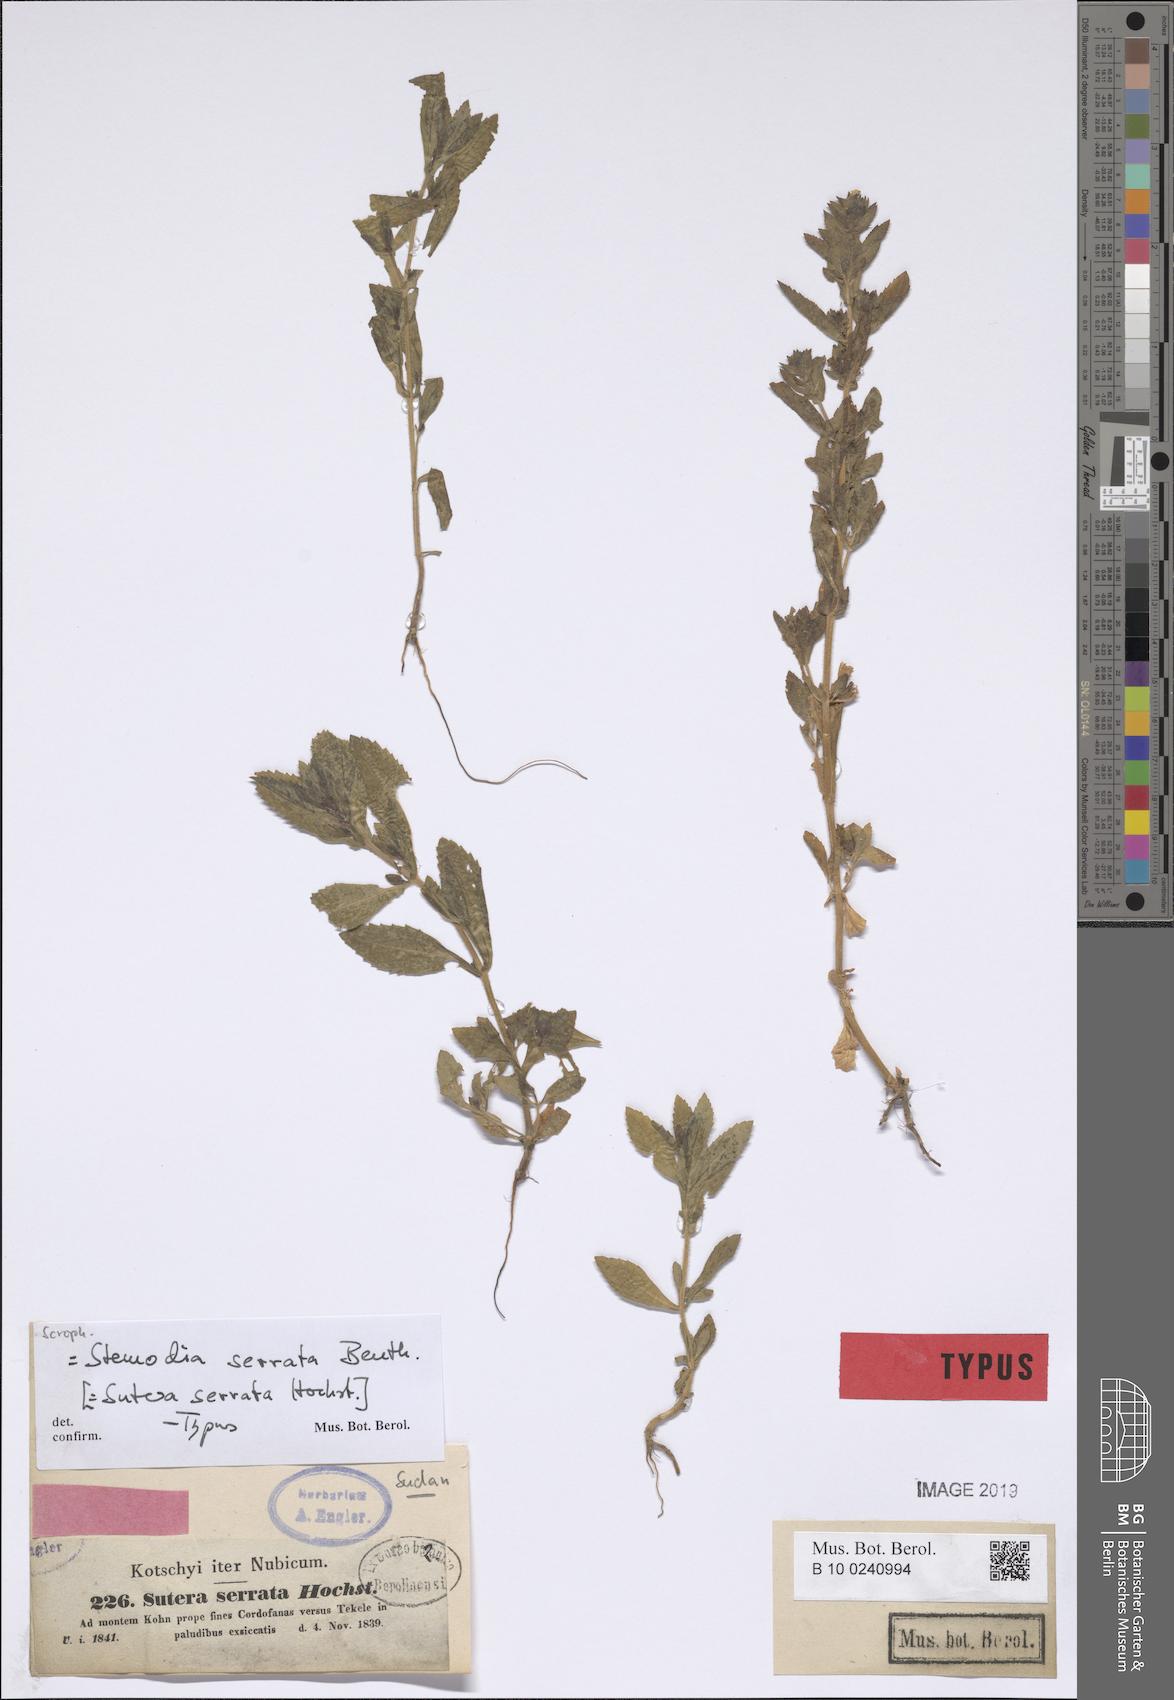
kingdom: Plantae
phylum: Tracheophyta
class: Magnoliopsida
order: Lamiales
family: Plantaginaceae
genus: Stemodia
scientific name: Stemodia serrata
